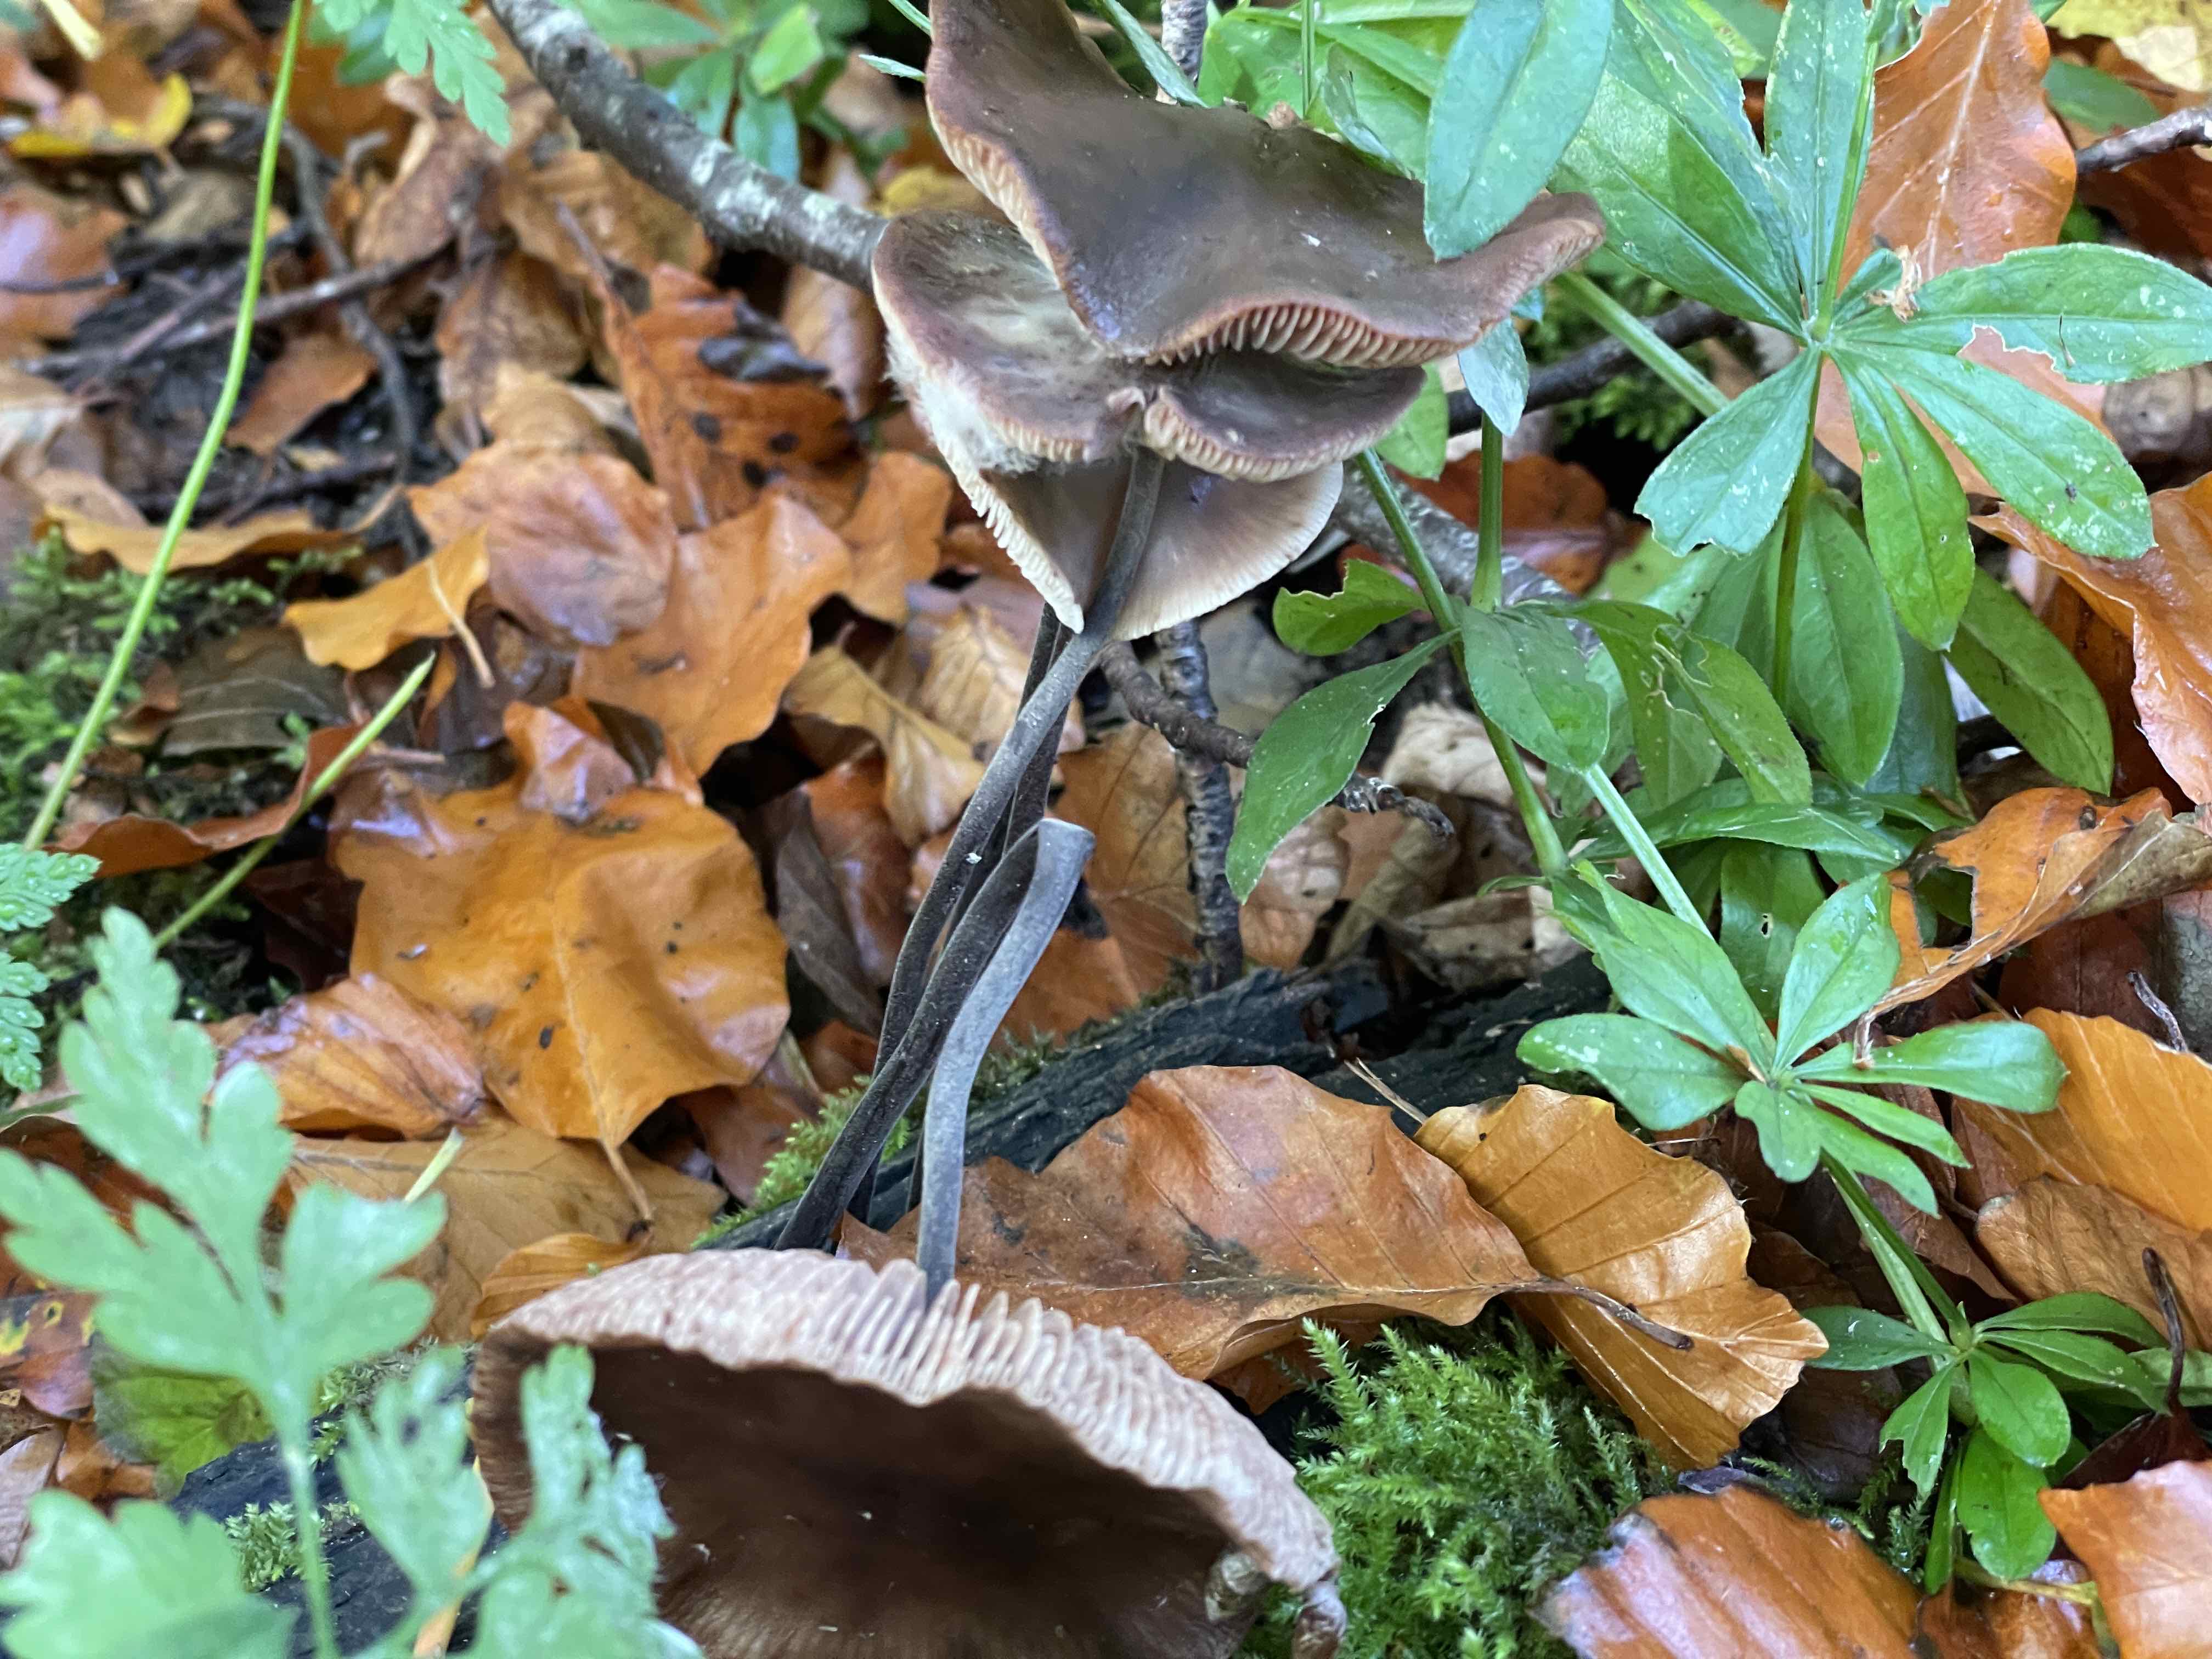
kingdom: Fungi
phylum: Basidiomycota
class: Agaricomycetes
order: Agaricales
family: Omphalotaceae
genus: Mycetinis
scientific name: Mycetinis alliaceus
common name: stor løghat
